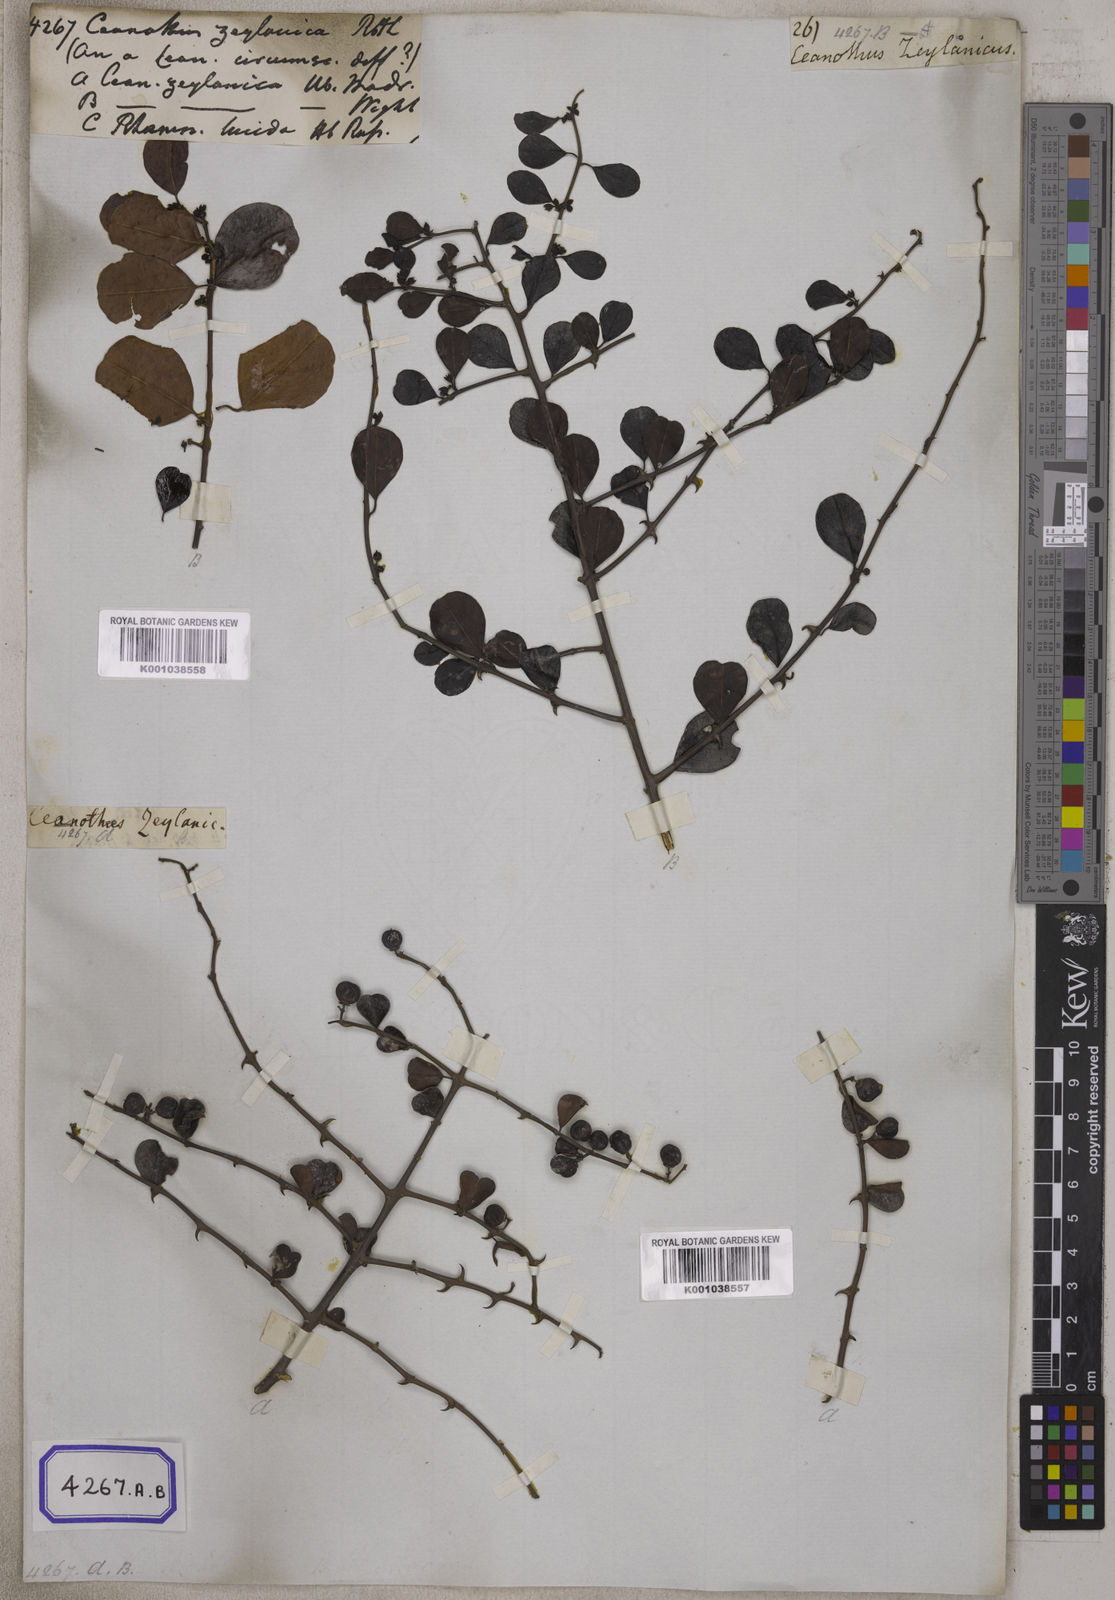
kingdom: Plantae
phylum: Tracheophyta
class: Magnoliopsida
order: Rosales
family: Rhamnaceae
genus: Ceanothus
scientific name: Ceanothus
